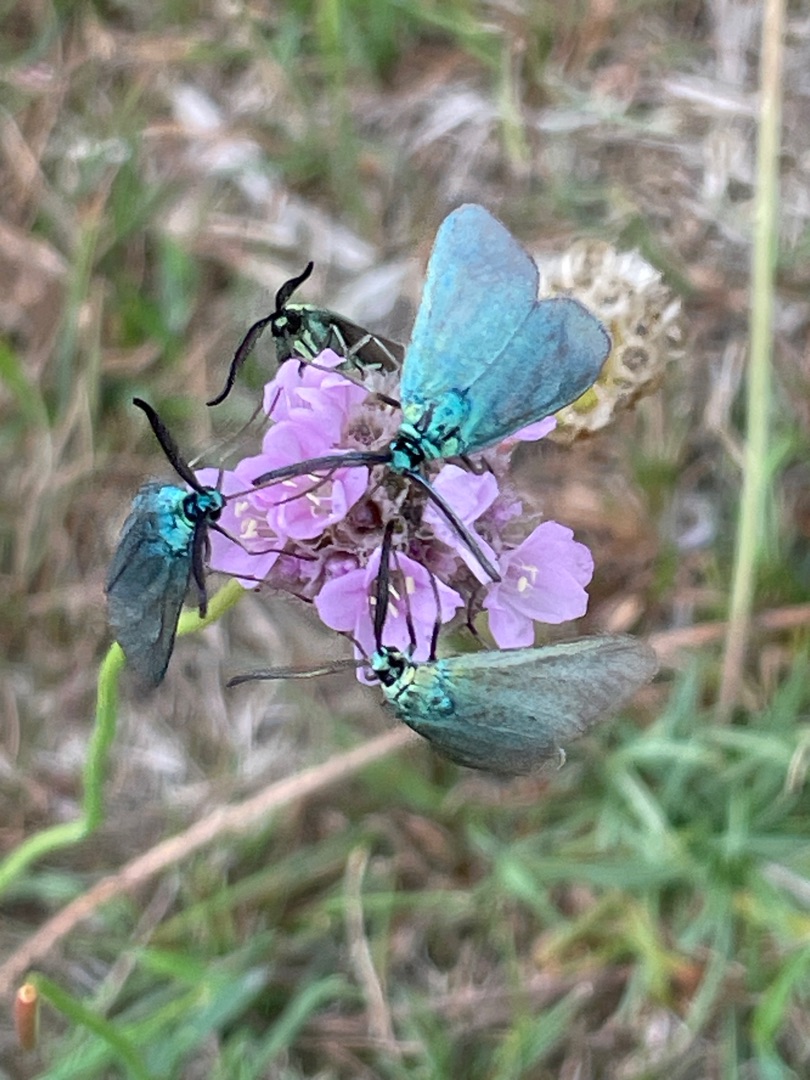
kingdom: Animalia
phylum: Arthropoda
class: Insecta
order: Lepidoptera
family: Zygaenidae
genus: Adscita
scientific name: Adscita statices
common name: Metalvinge
